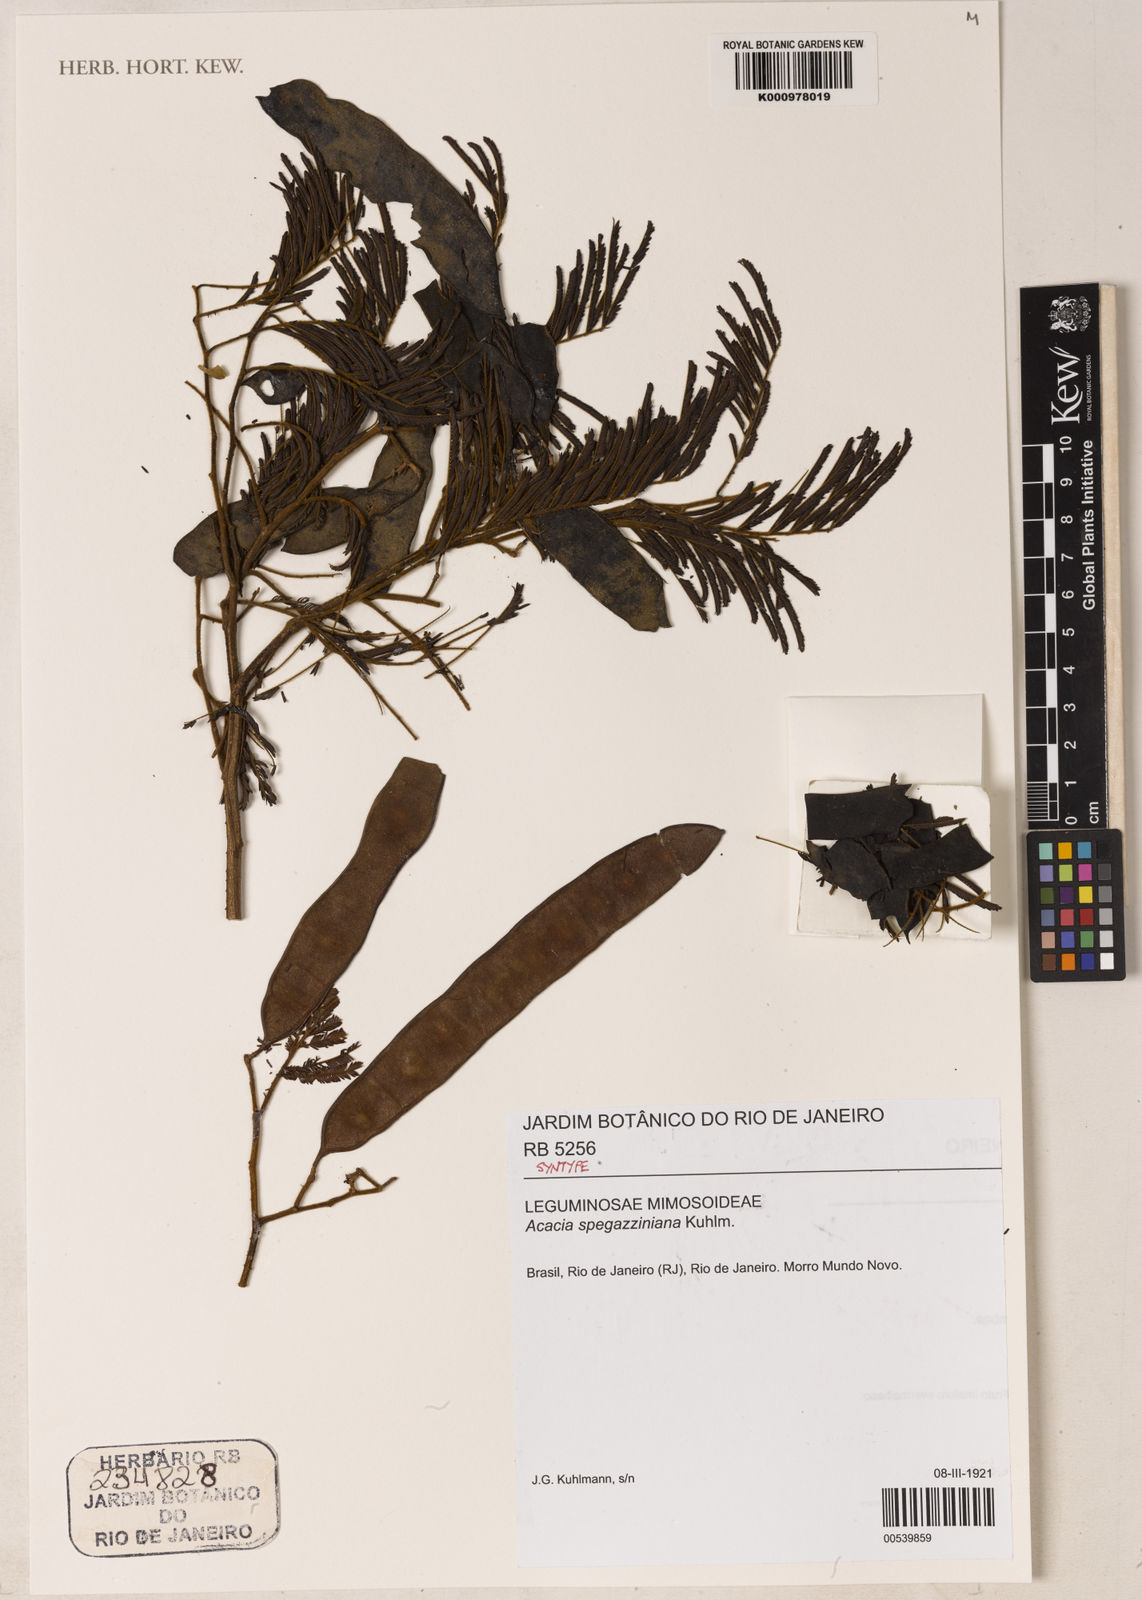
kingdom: Plantae
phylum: Tracheophyta
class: Magnoliopsida
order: Fabales
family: Fabaceae
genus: Senegalia
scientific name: Senegalia martiusiana
